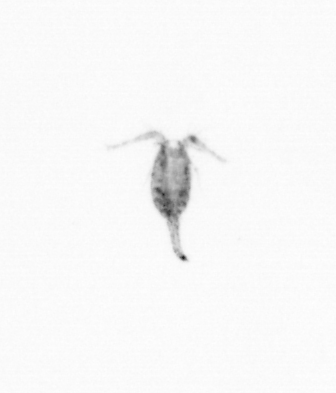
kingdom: Animalia
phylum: Arthropoda
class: Copepoda
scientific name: Copepoda
